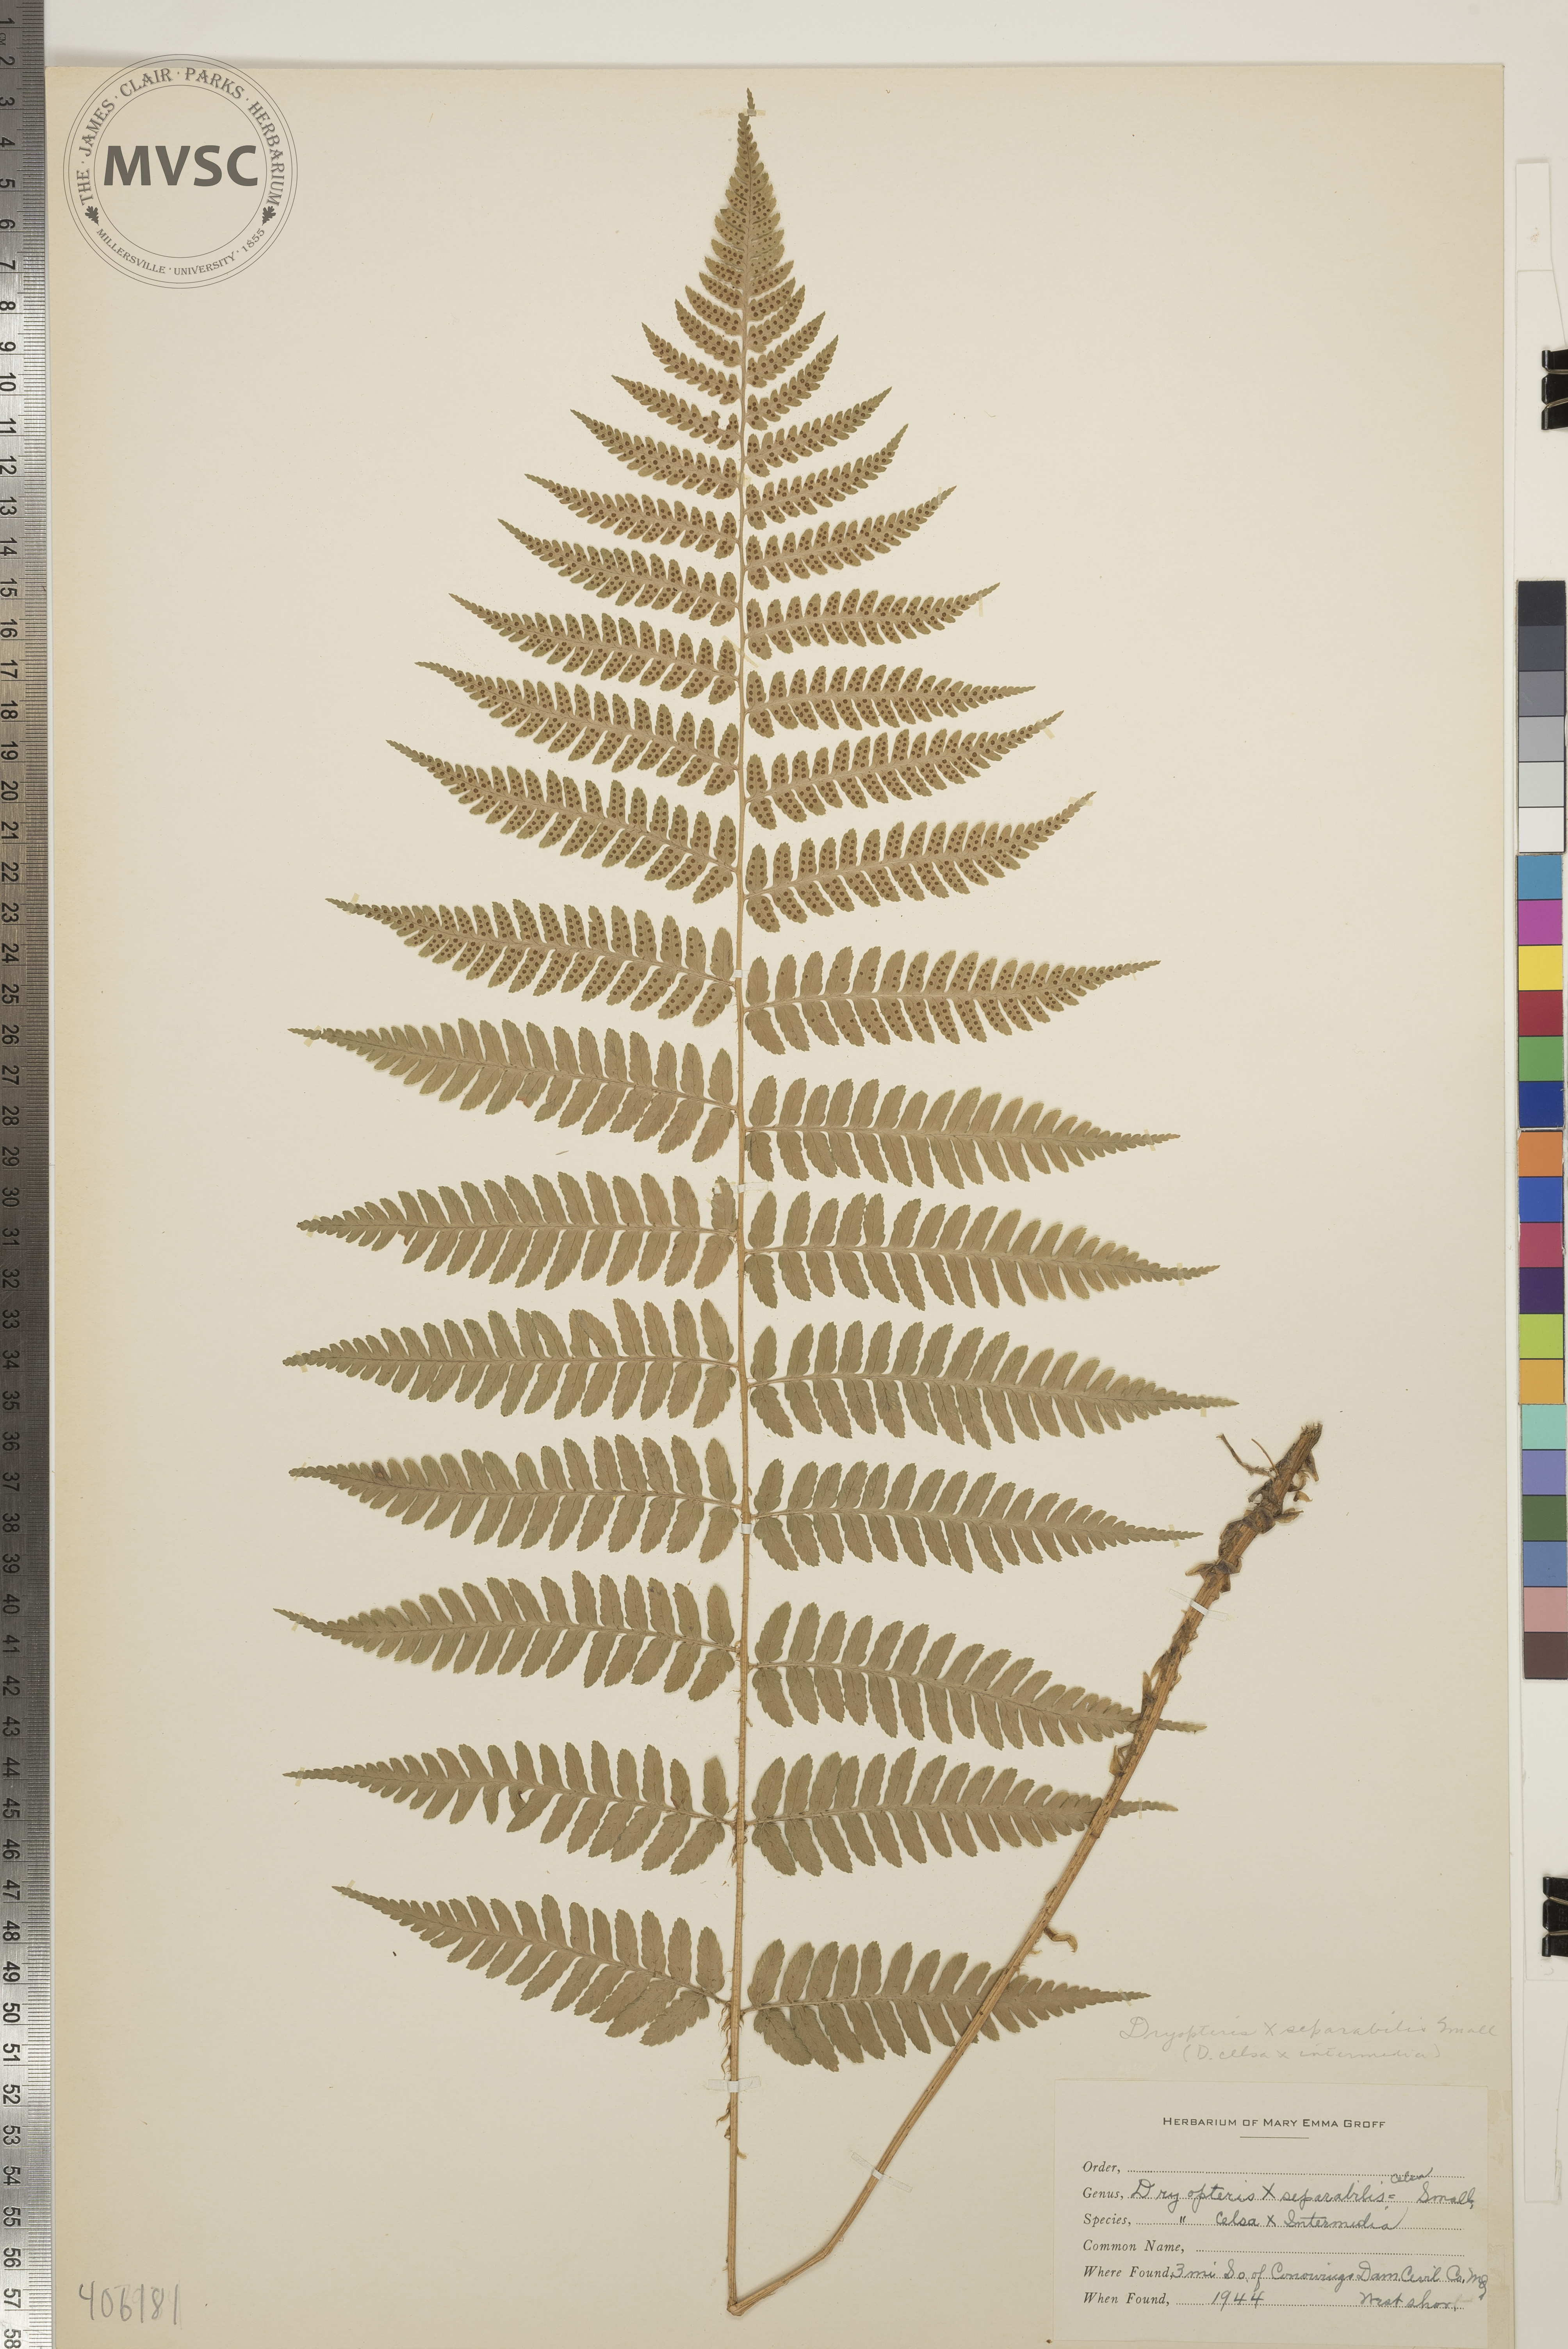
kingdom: Plantae
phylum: Tracheophyta
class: Polypodiopsida
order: Polypodiales
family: Dryopteridaceae
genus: Dryopteris
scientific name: Dryopteris
